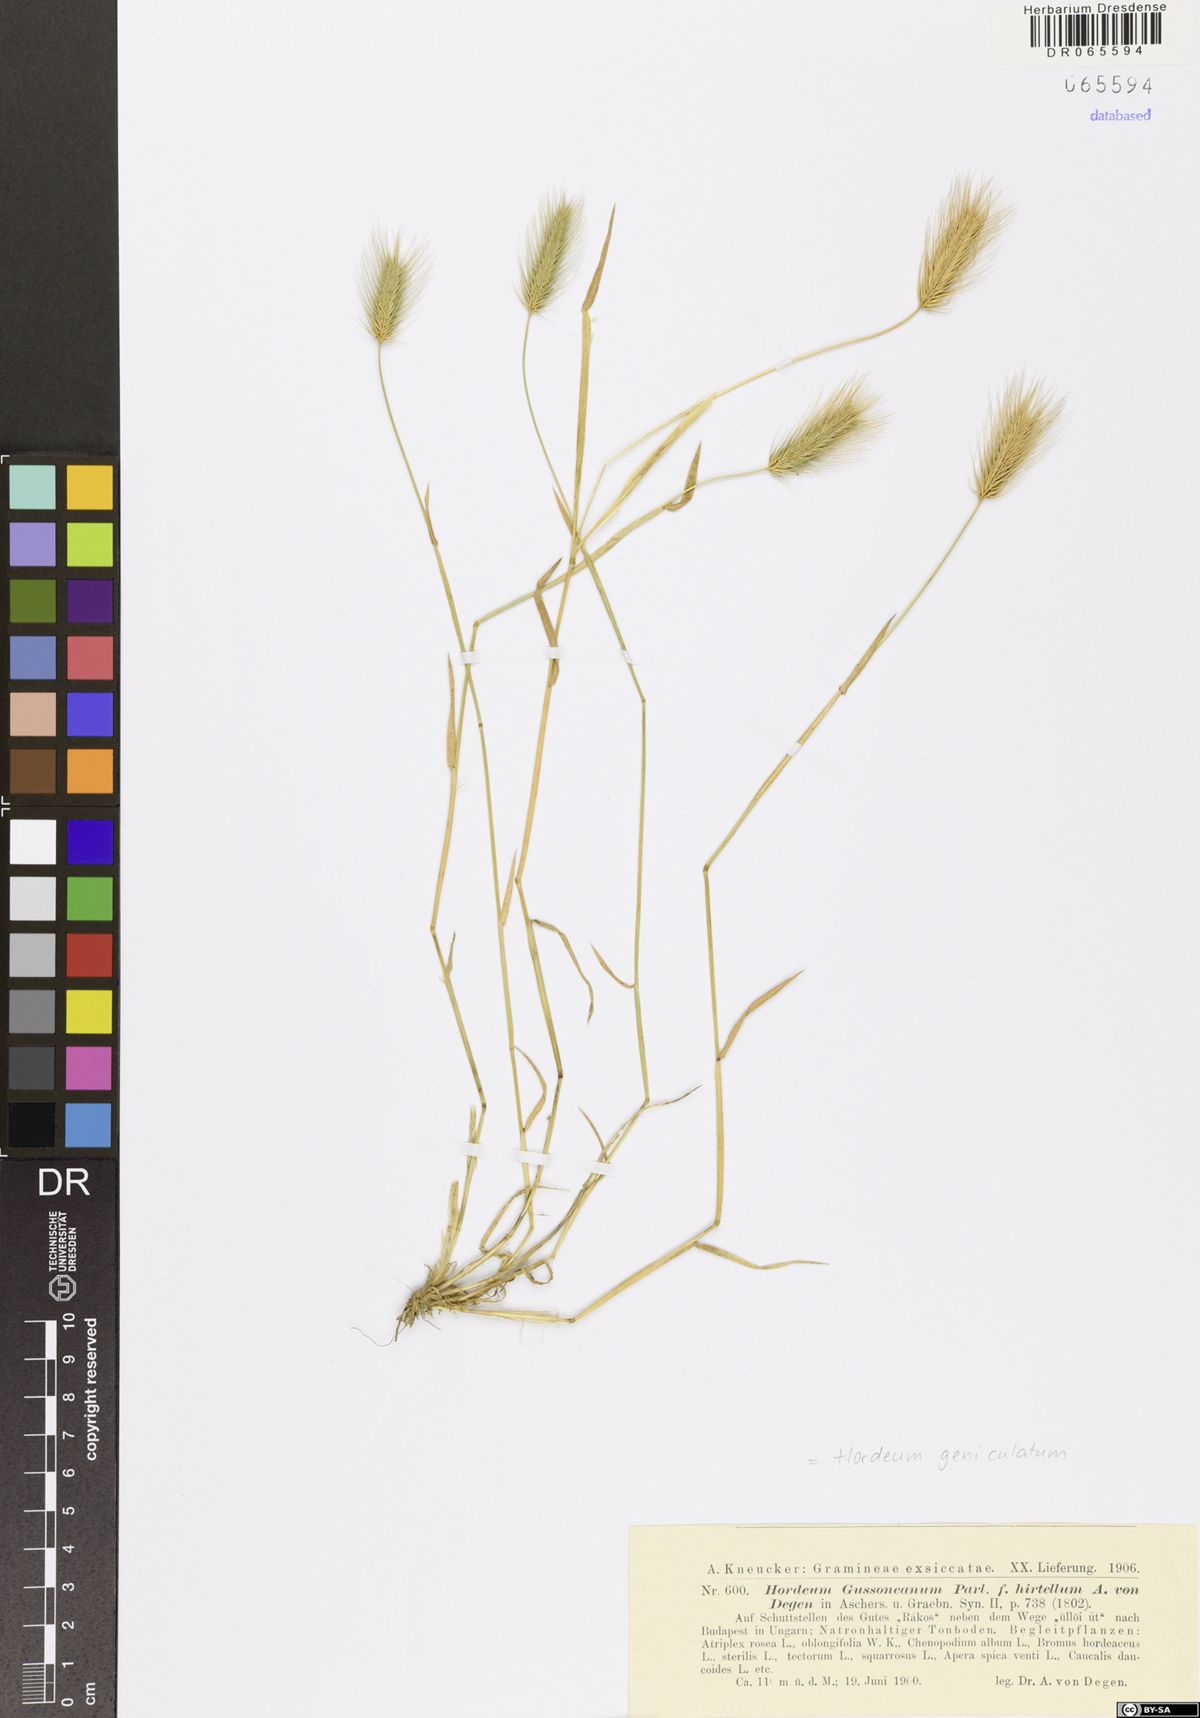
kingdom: Plantae
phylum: Tracheophyta
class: Liliopsida
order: Poales
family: Poaceae
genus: Hordeum
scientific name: Hordeum marinum
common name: Sea barley
